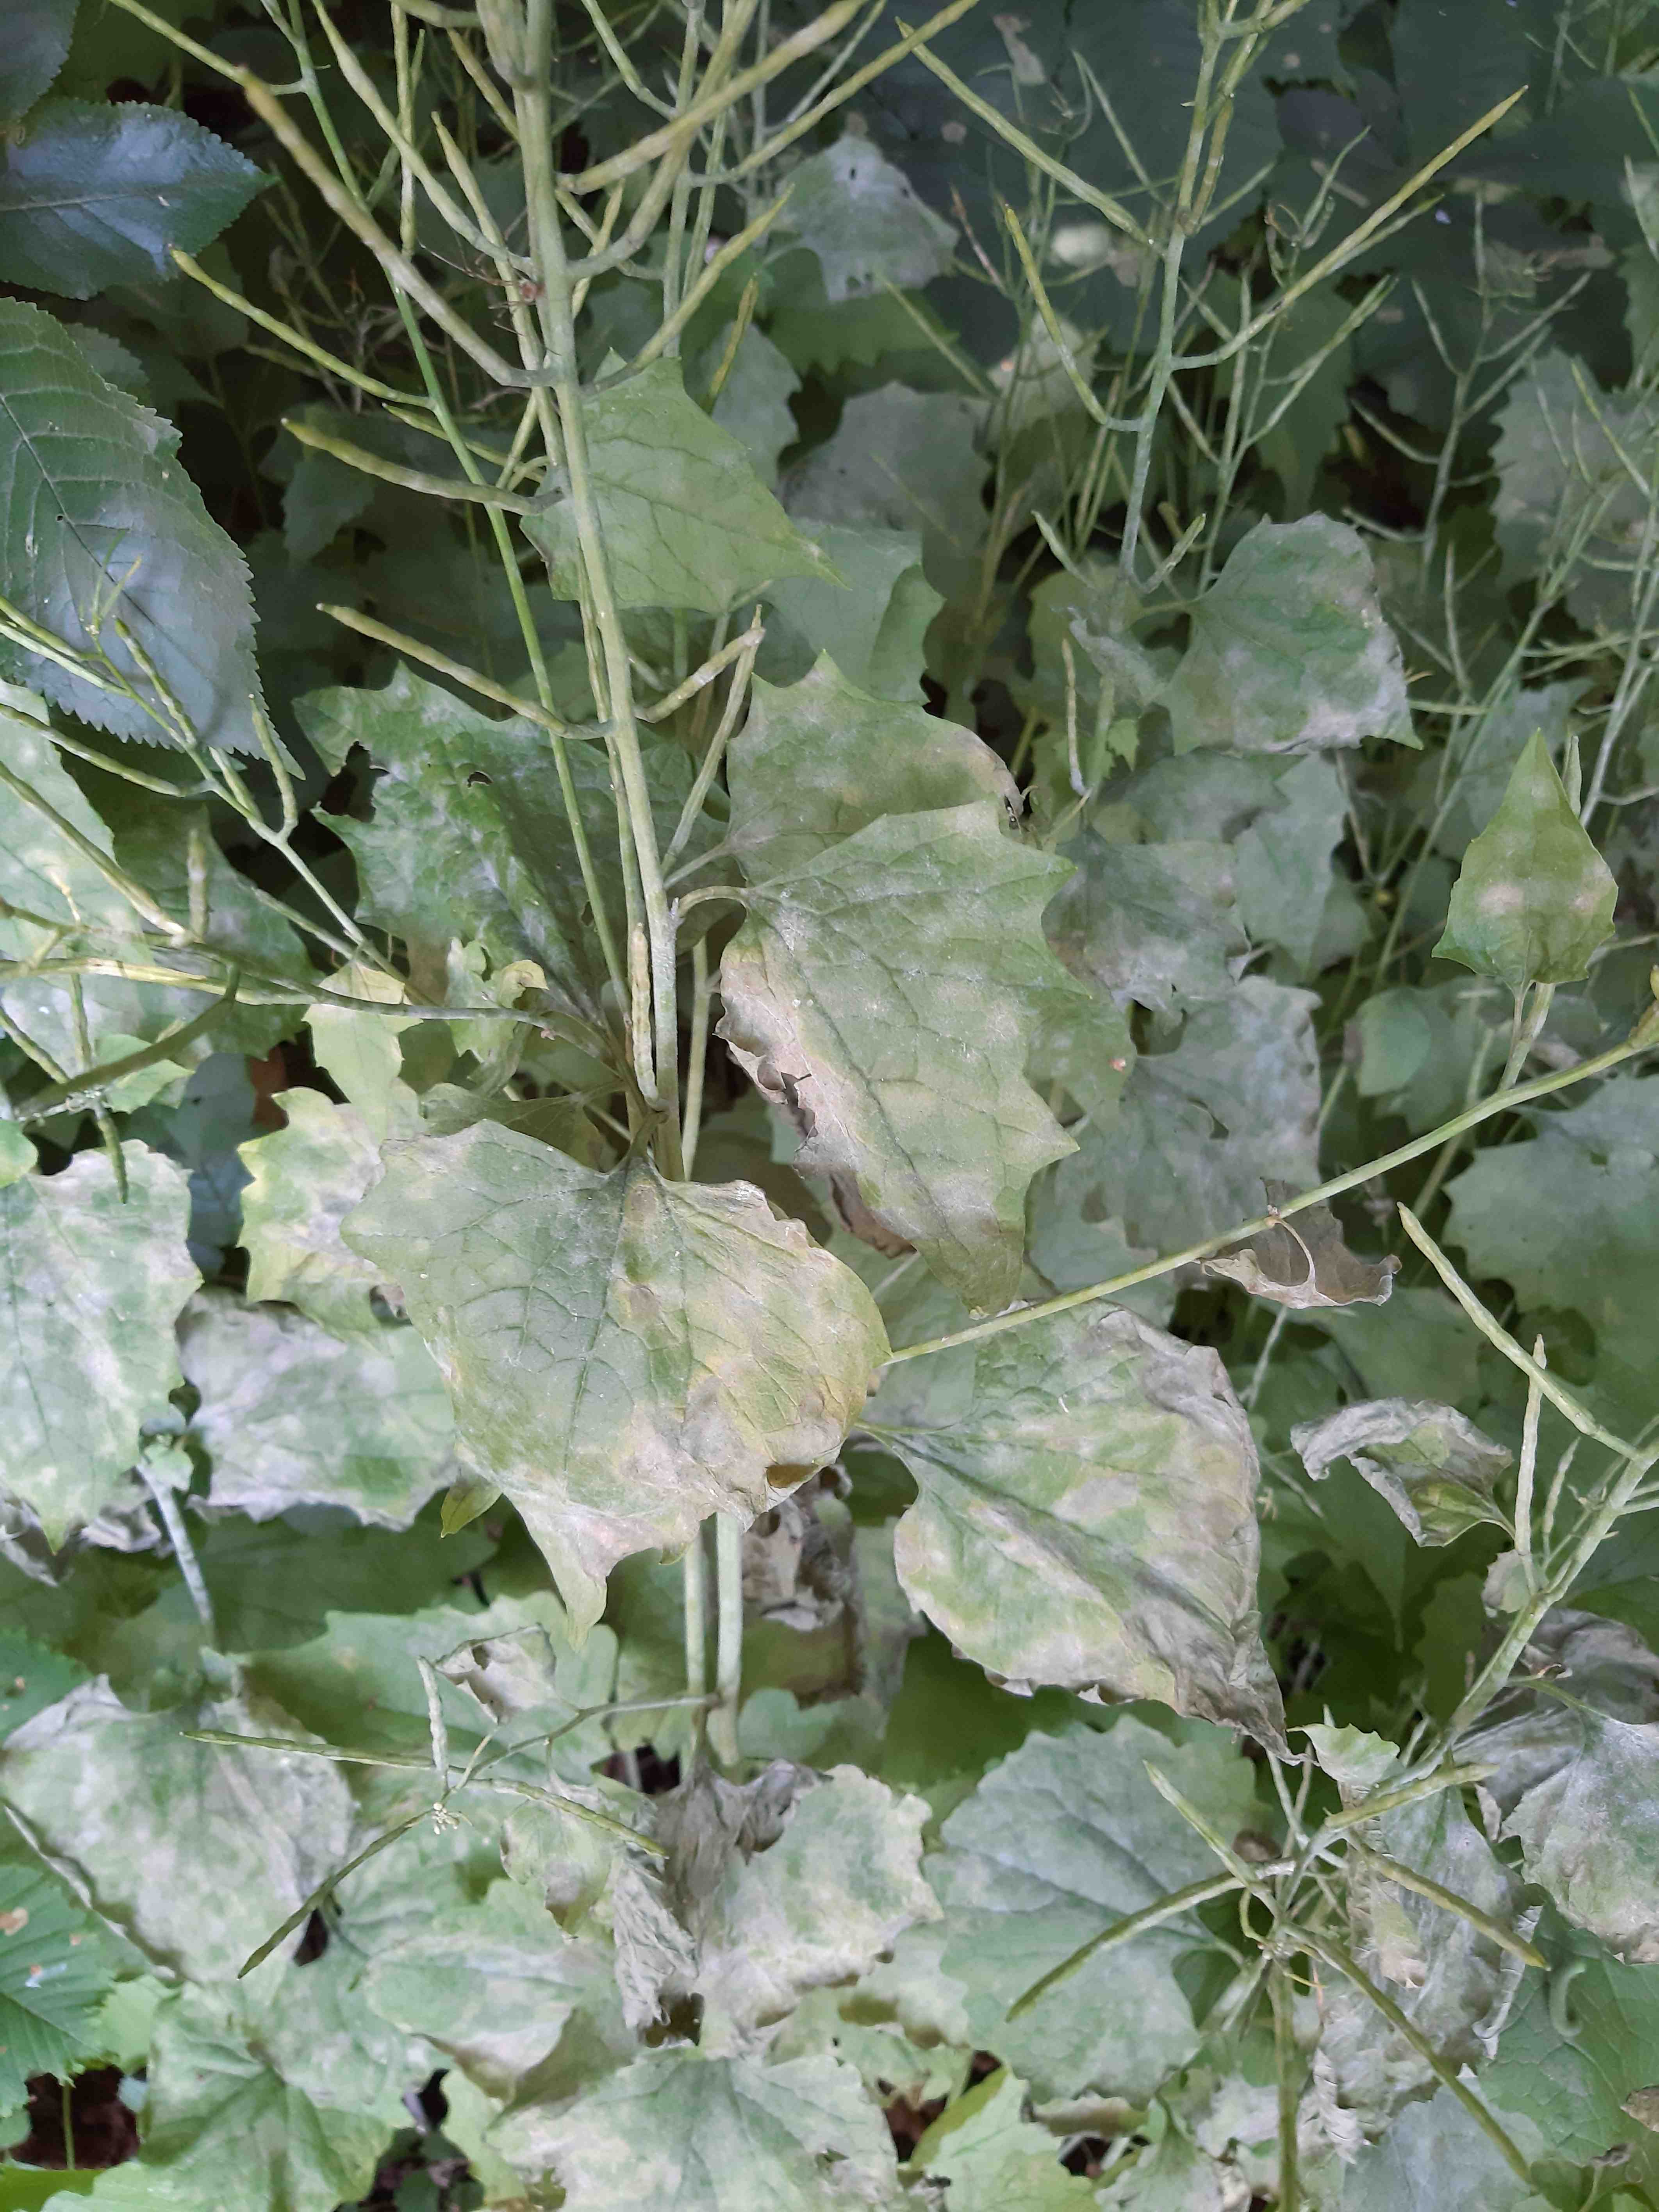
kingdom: Fungi
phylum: Ascomycota
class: Leotiomycetes
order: Helotiales
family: Erysiphaceae
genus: Erysiphe
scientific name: Erysiphe cruciferarum
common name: korsblomst-meldug
